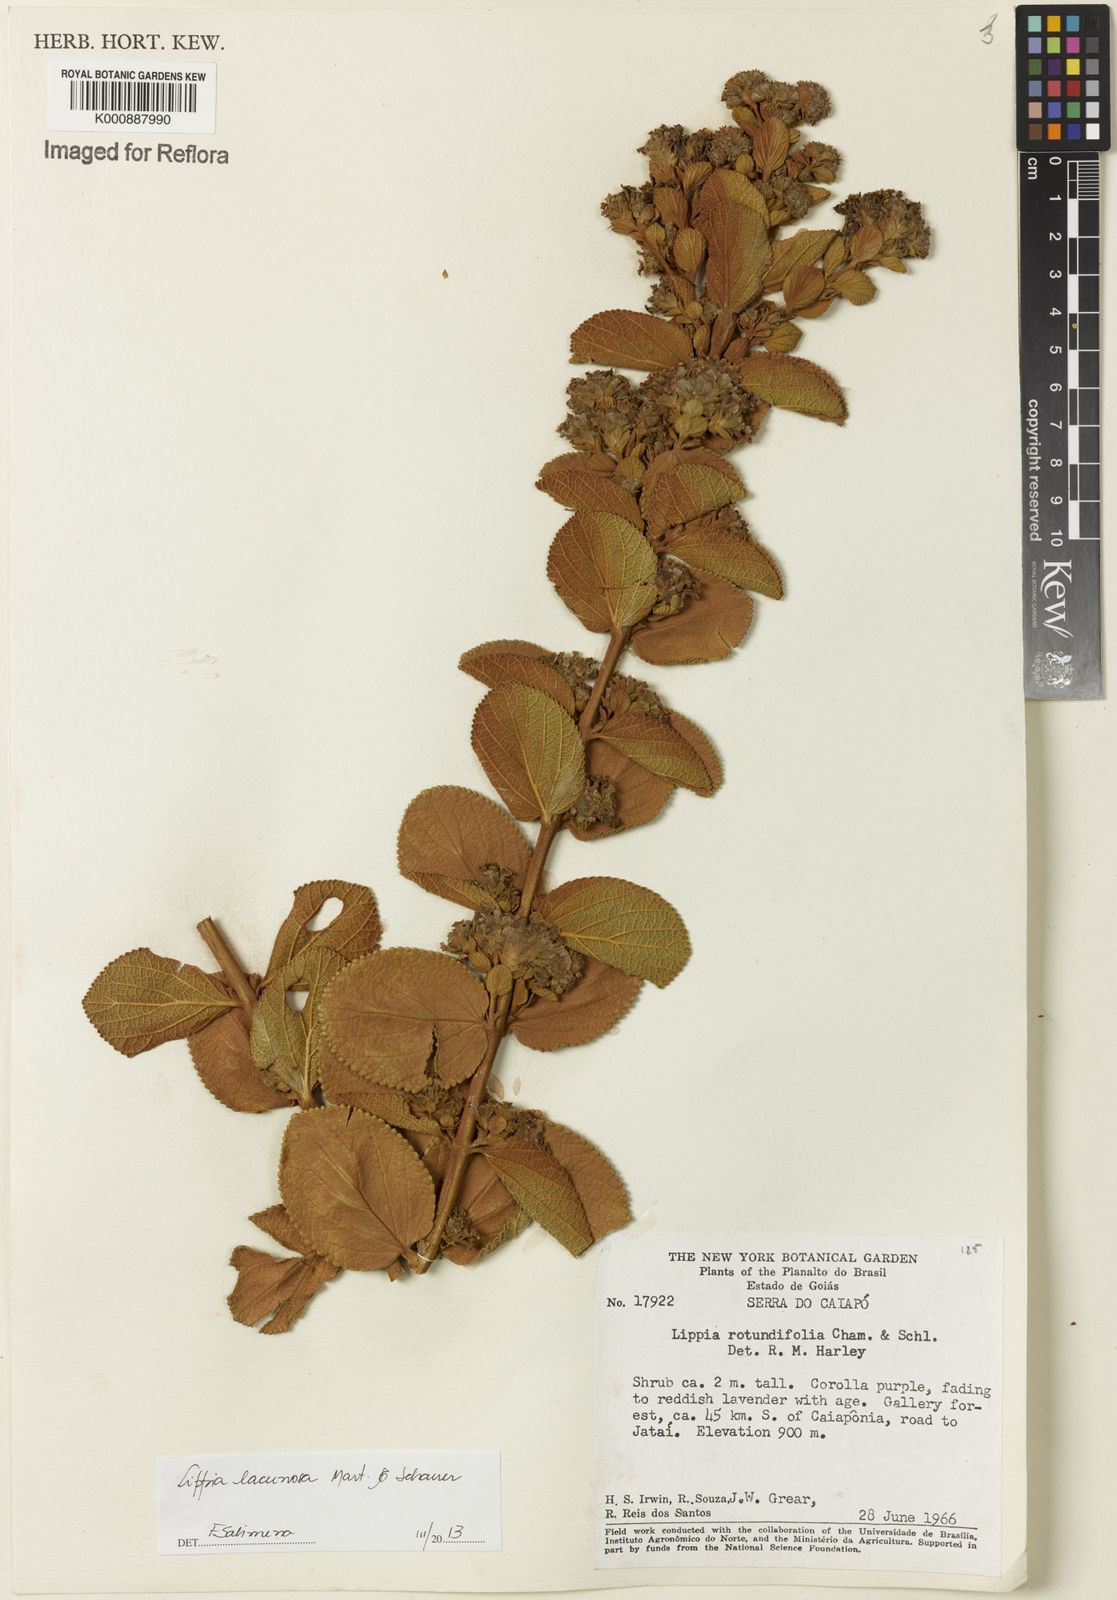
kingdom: Plantae
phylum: Tracheophyta
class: Magnoliopsida
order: Lamiales
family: Verbenaceae
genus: Lippia
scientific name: Lippia lacunosa
